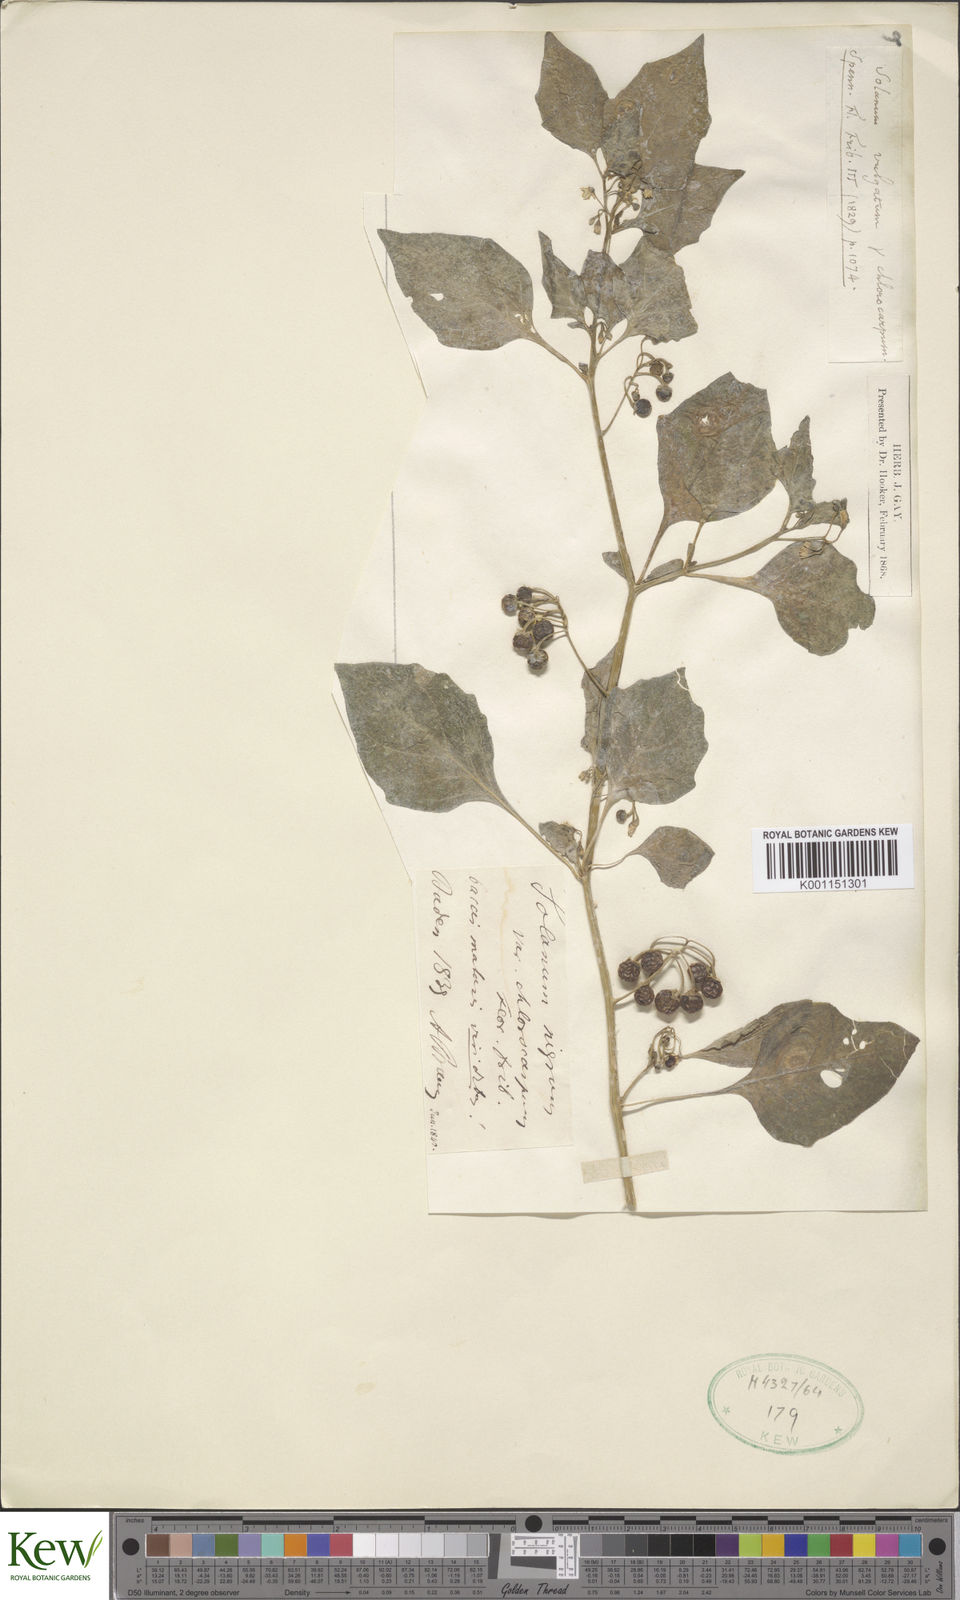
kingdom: Plantae
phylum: Tracheophyta
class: Magnoliopsida
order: Solanales
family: Solanaceae
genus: Solanum
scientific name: Solanum villosum
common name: Red nightshade
